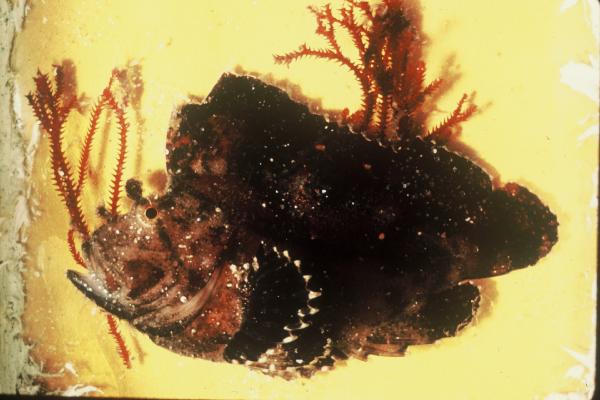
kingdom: Animalia
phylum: Chordata
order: Scorpaeniformes
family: Scorpaenidae
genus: Taenianotus
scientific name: Taenianotus triacanthus
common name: Leaf scorpionfish
